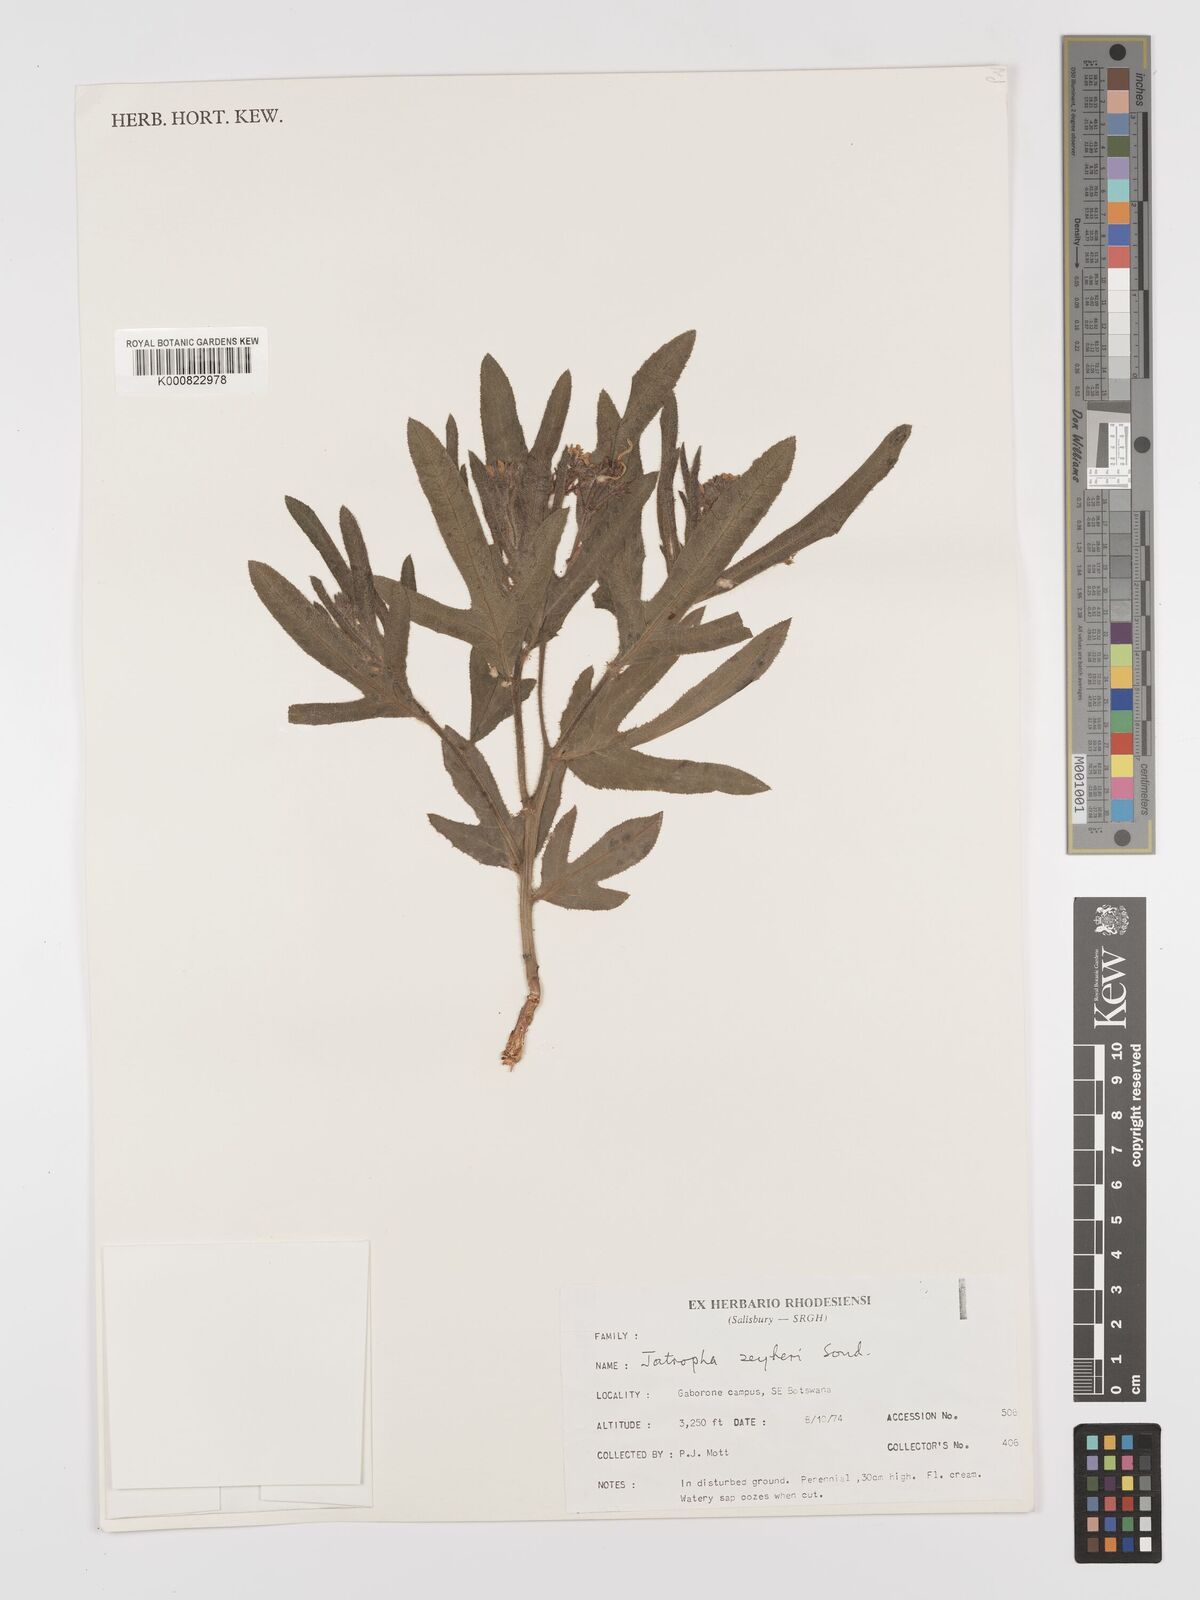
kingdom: Plantae
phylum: Tracheophyta
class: Magnoliopsida
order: Malpighiales
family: Euphorbiaceae
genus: Jatropha
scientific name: Jatropha zeyheri
